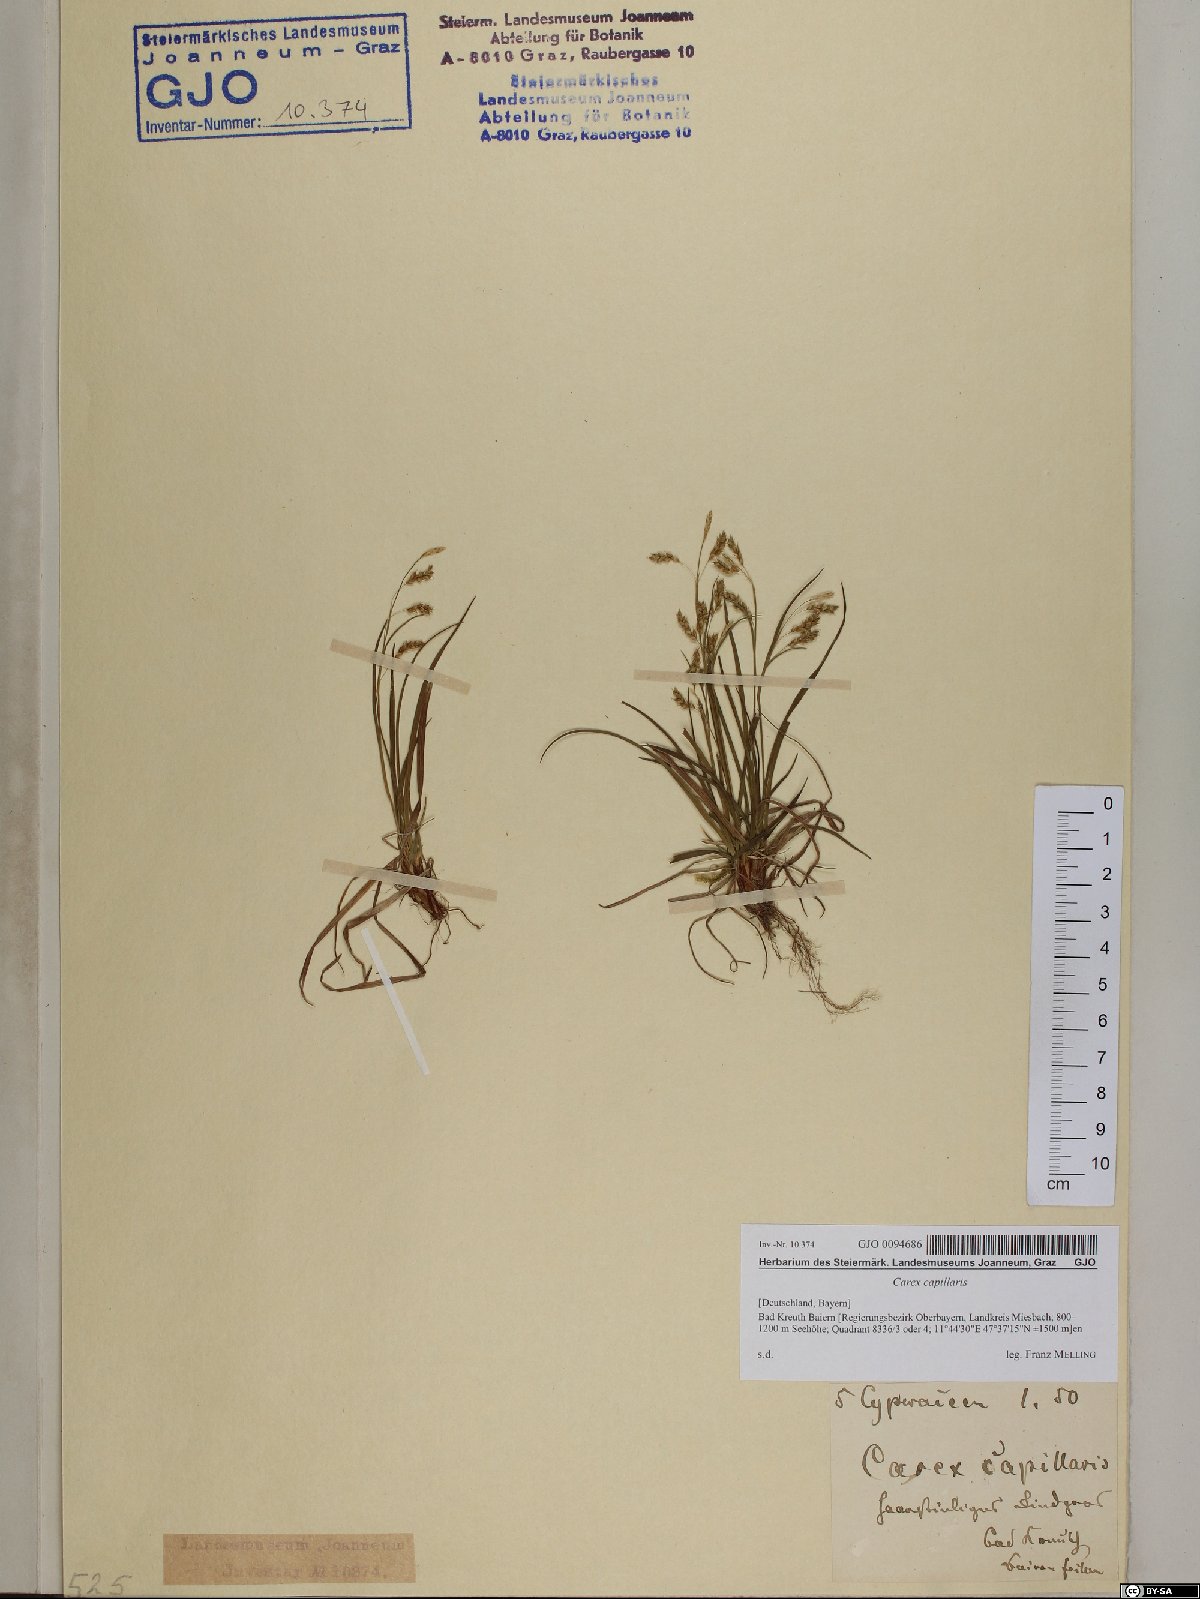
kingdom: Plantae
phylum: Tracheophyta
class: Liliopsida
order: Poales
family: Cyperaceae
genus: Carex
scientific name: Carex capillaris
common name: Hair sedge
